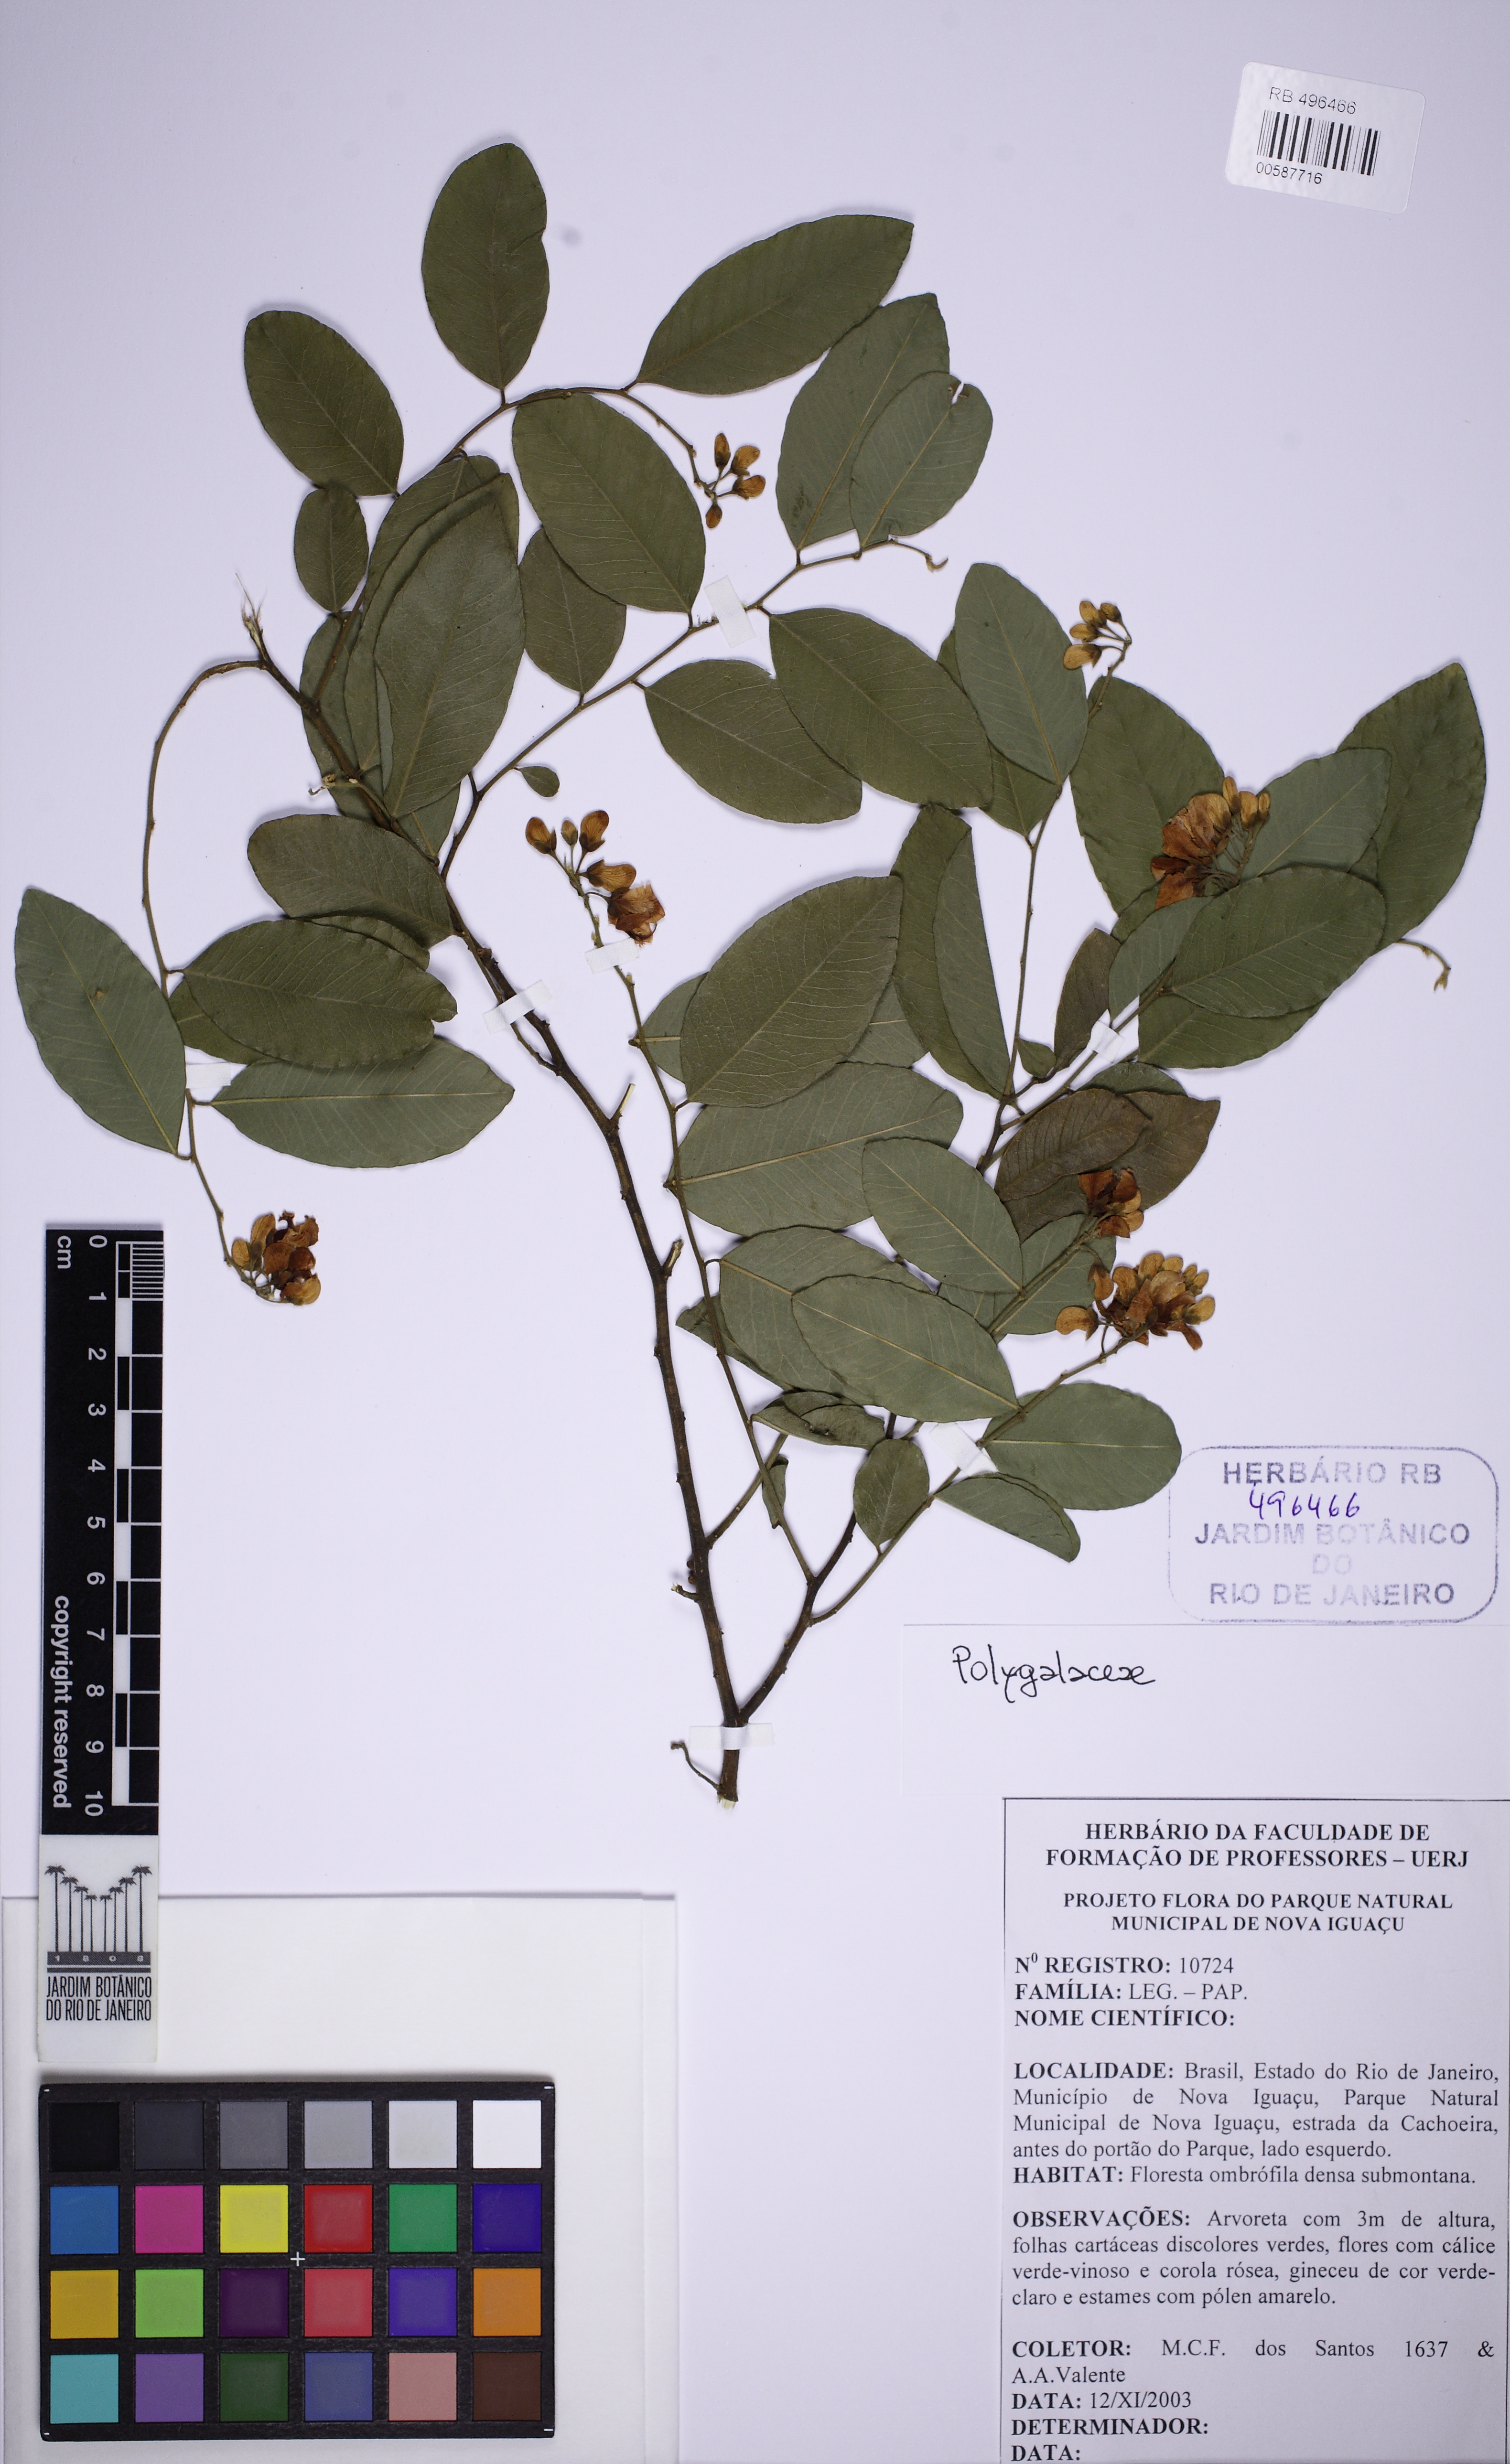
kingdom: Plantae
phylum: Tracheophyta
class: Magnoliopsida
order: Fabales
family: Polygalaceae
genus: Securidaca
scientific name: Securidaca
